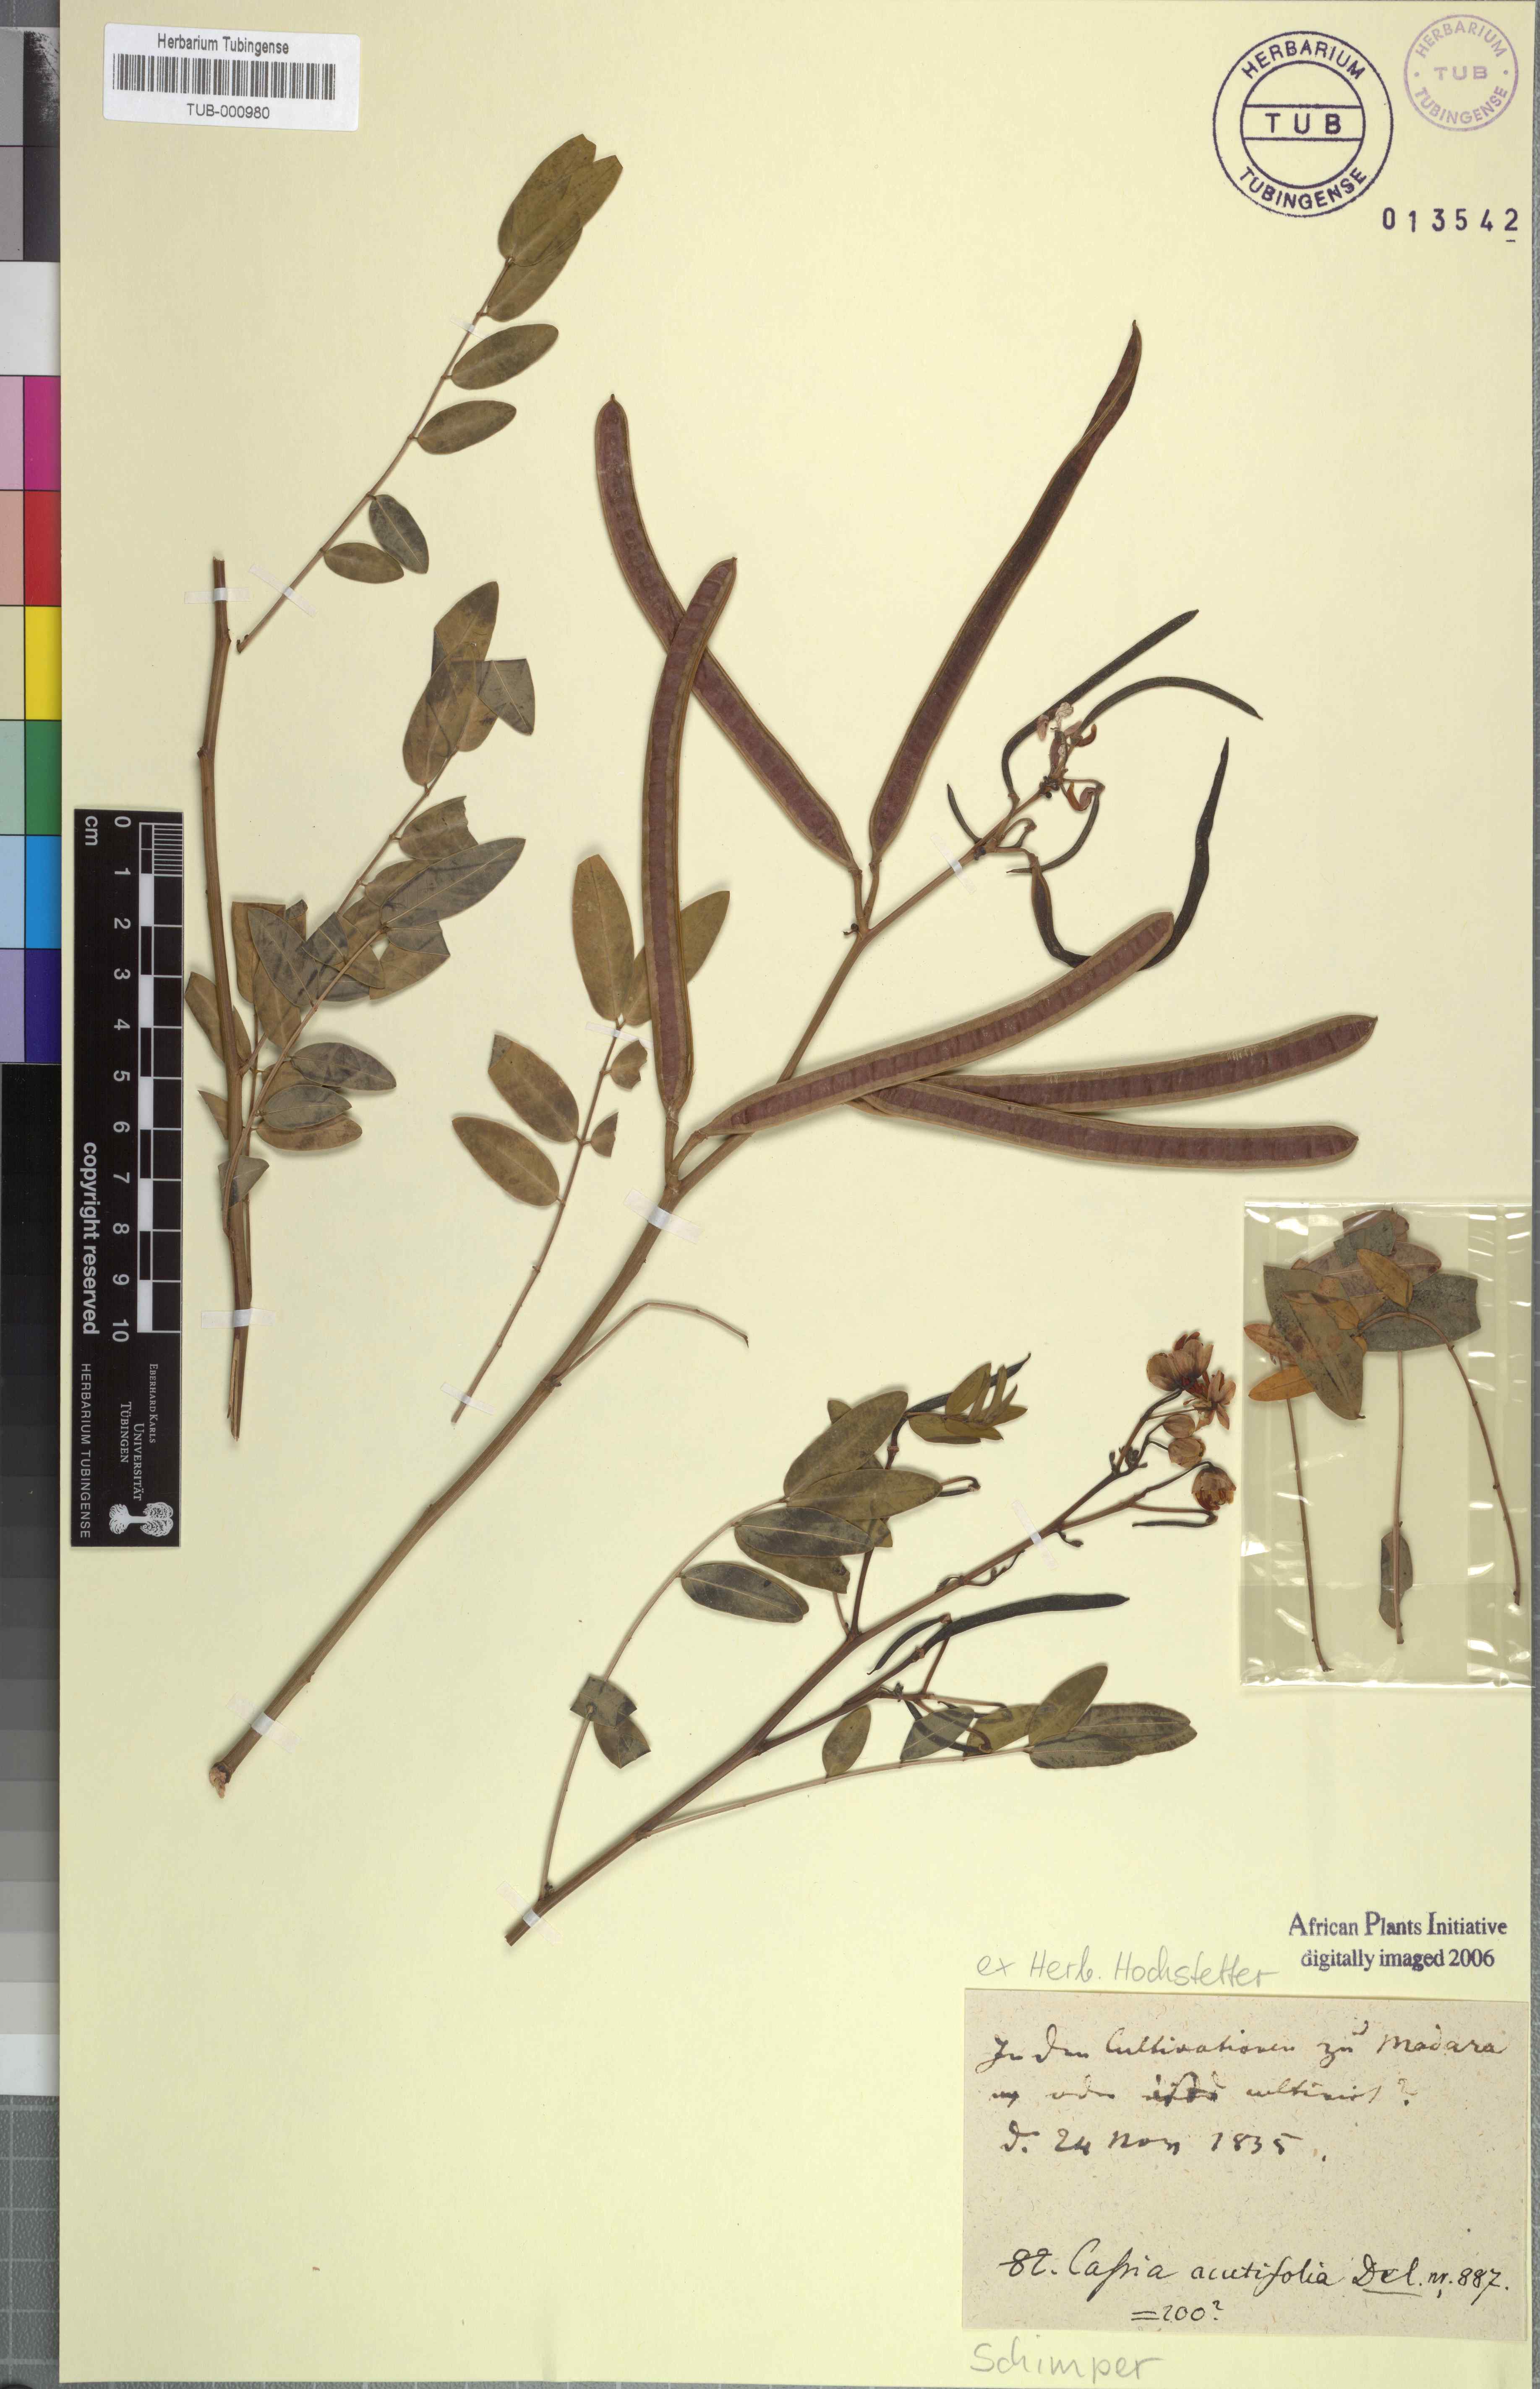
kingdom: Plantae
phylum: Tracheophyta
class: Magnoliopsida
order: Fabales
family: Fabaceae
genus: Senna
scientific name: Senna alexandrina
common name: True senna
